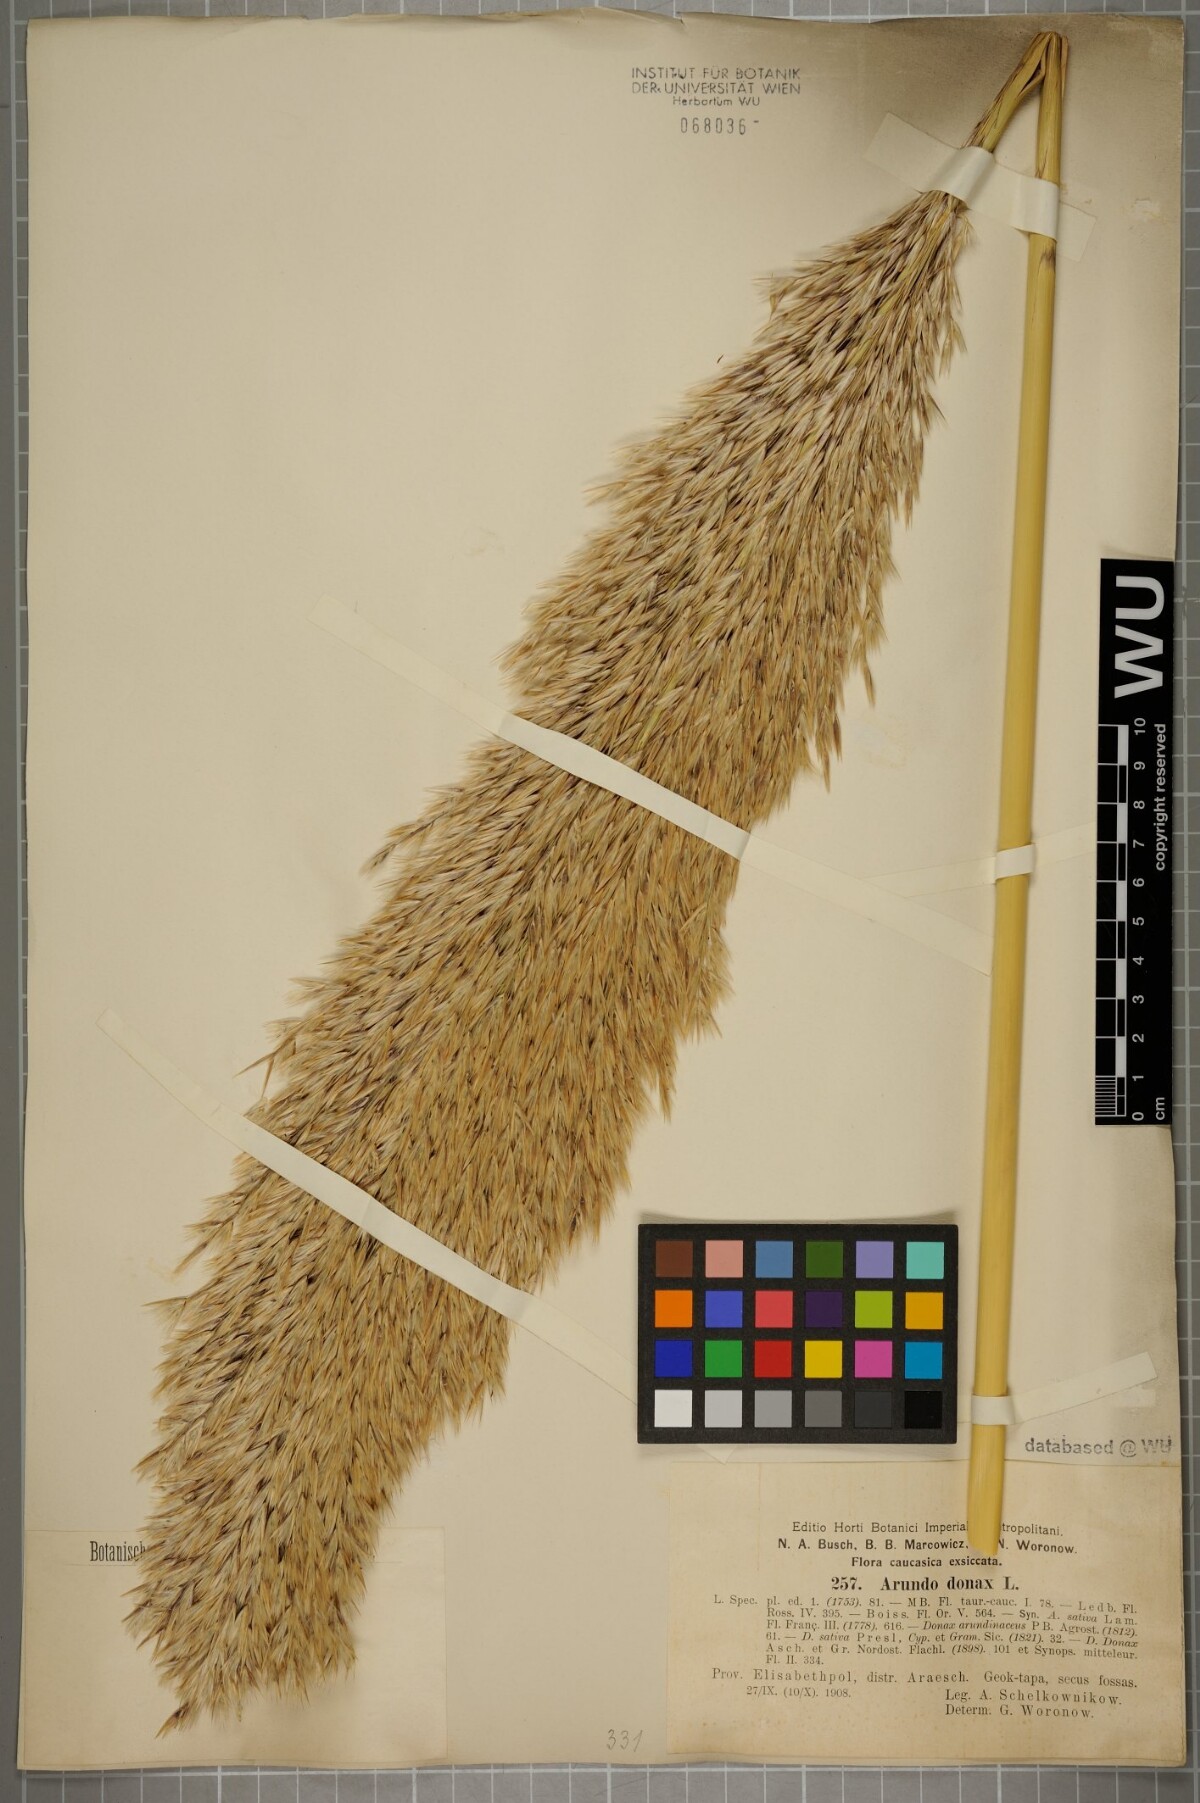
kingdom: Plantae
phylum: Tracheophyta
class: Liliopsida
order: Poales
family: Poaceae
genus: Arundo
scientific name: Arundo donax
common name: Giant reed
